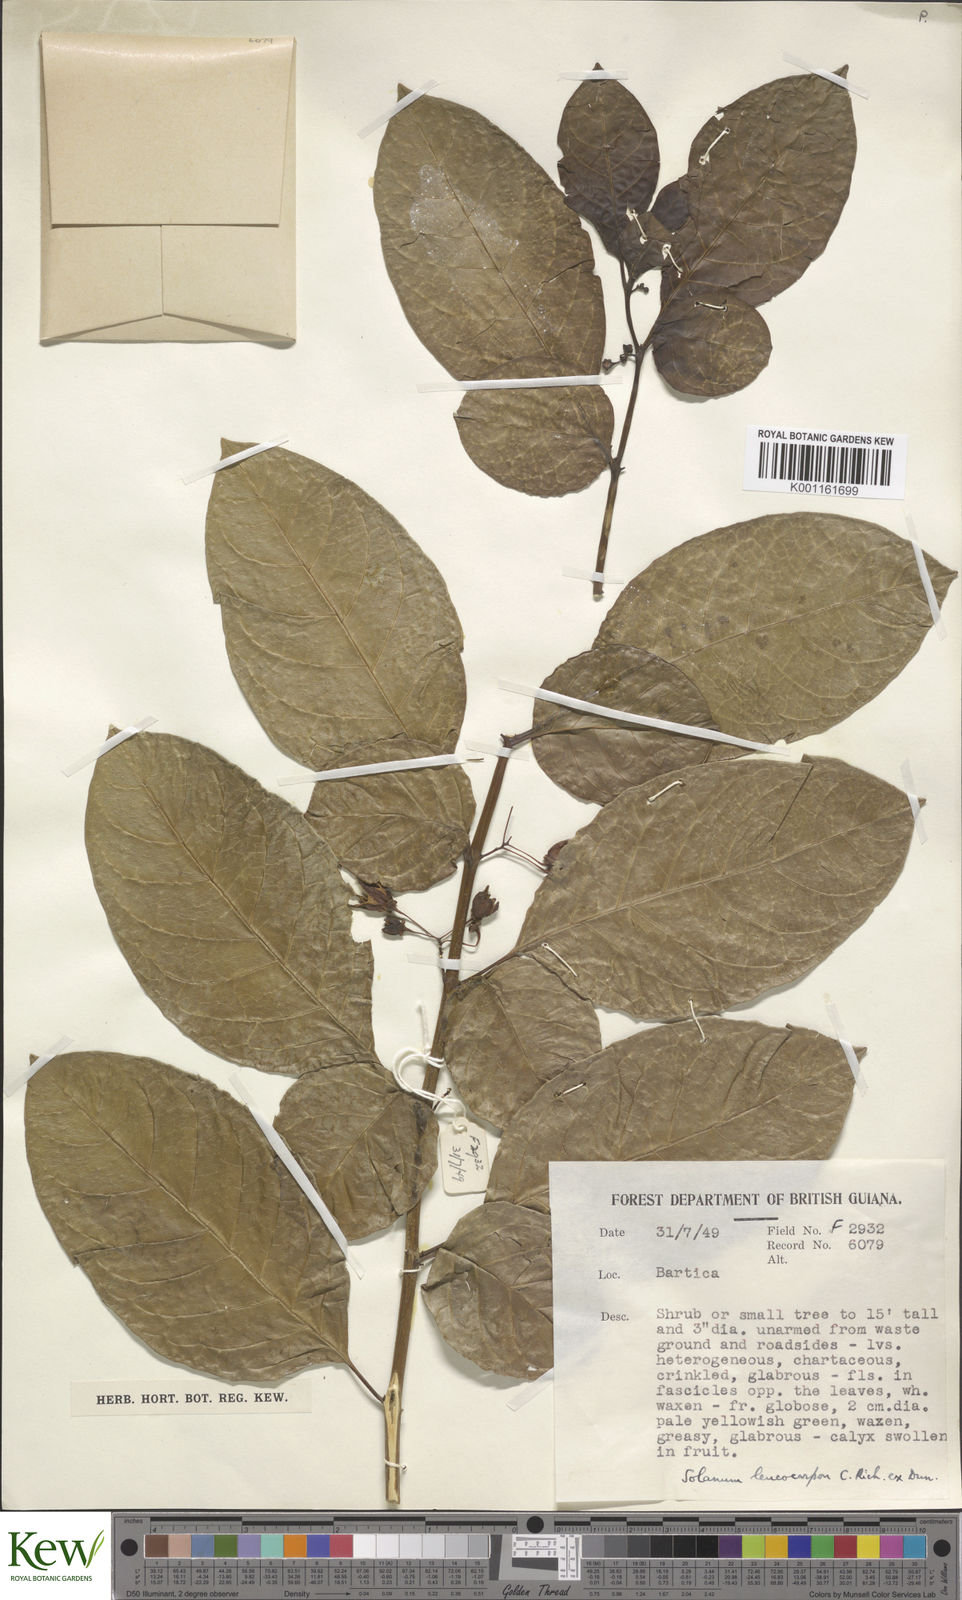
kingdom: Plantae
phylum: Tracheophyta
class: Magnoliopsida
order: Solanales
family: Solanaceae
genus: Solanum
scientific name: Solanum leucocarpon
